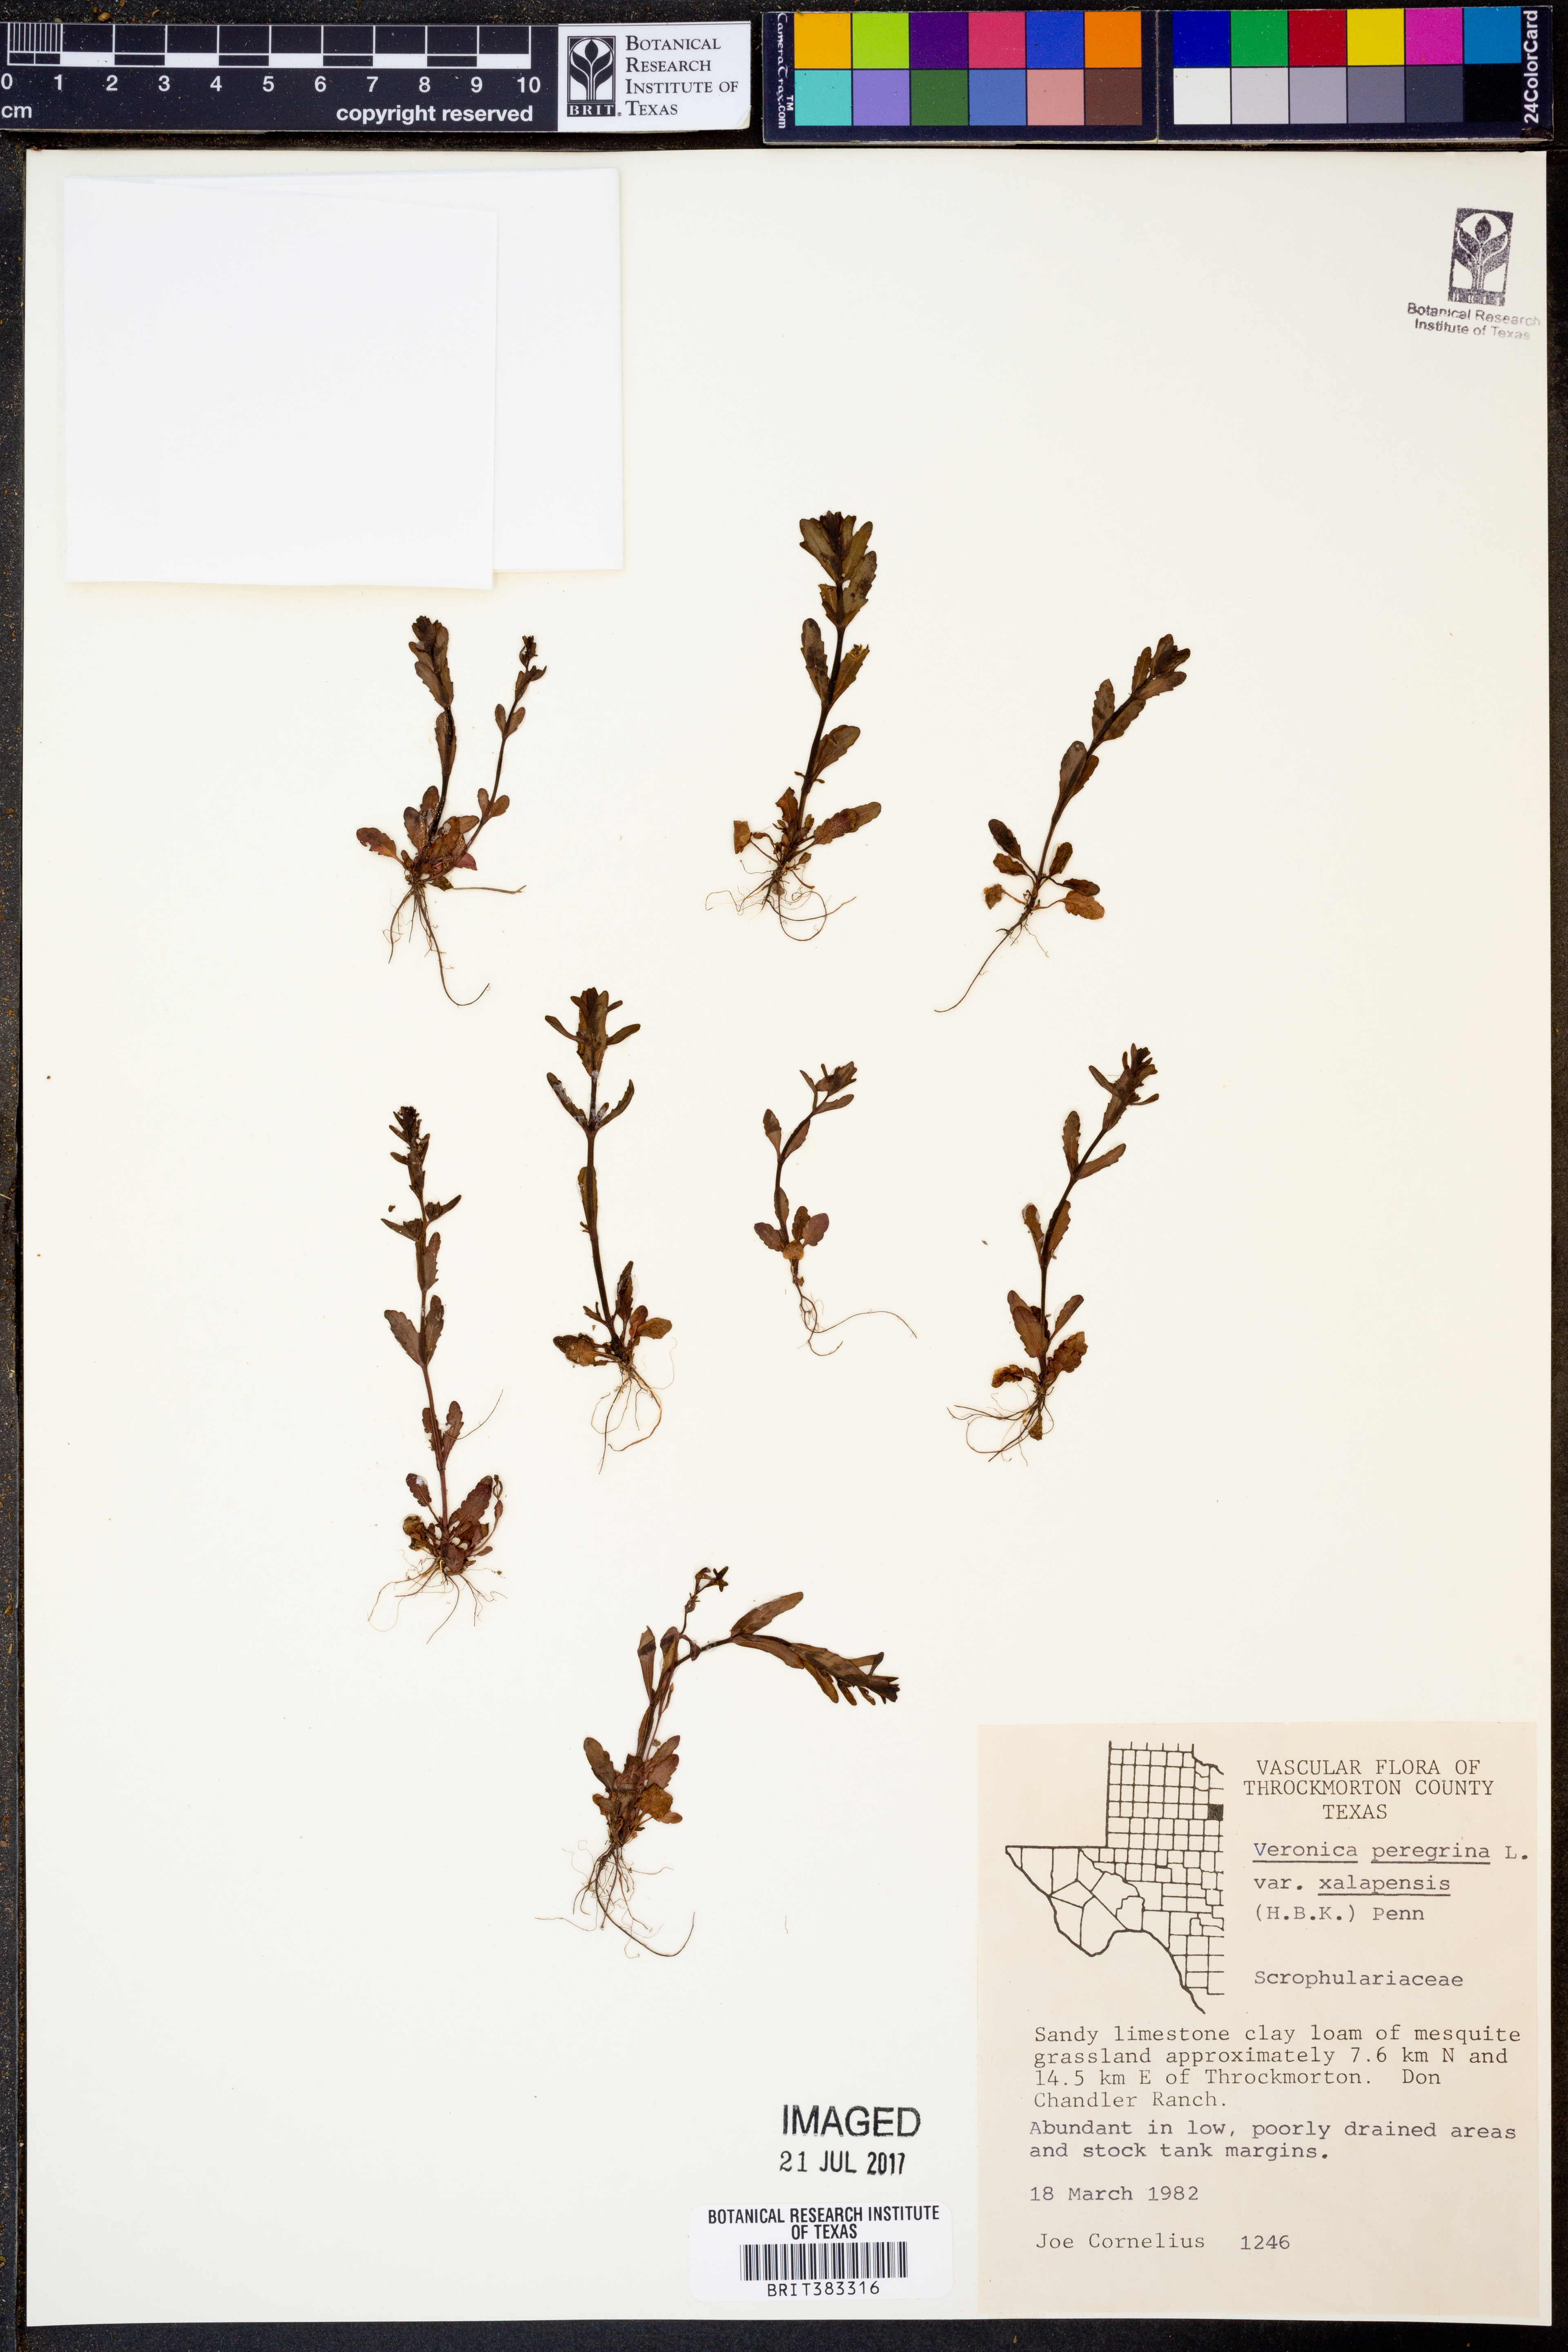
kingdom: Plantae
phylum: Tracheophyta
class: Magnoliopsida
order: Lamiales
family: Plantaginaceae
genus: Veronica
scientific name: Veronica peregrina
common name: Neckweed
